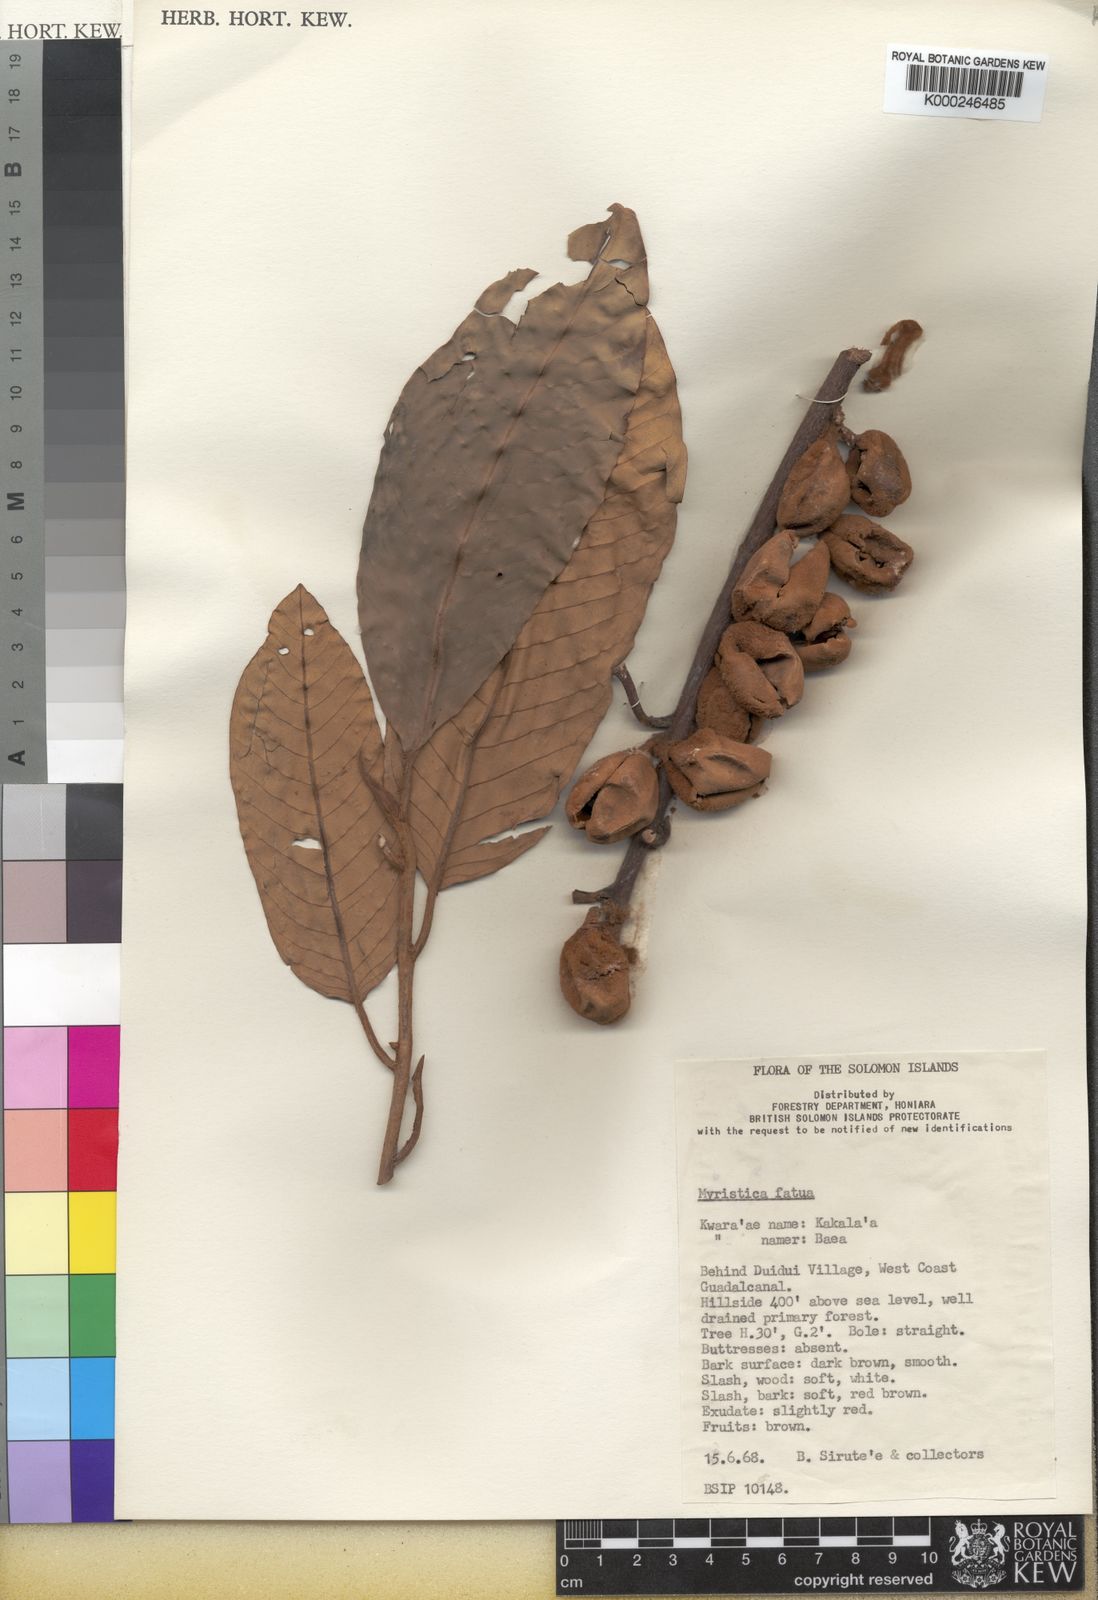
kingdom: Plantae
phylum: Tracheophyta
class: Magnoliopsida
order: Magnoliales
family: Myristicaceae
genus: Myristica
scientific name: Myristica fatua
